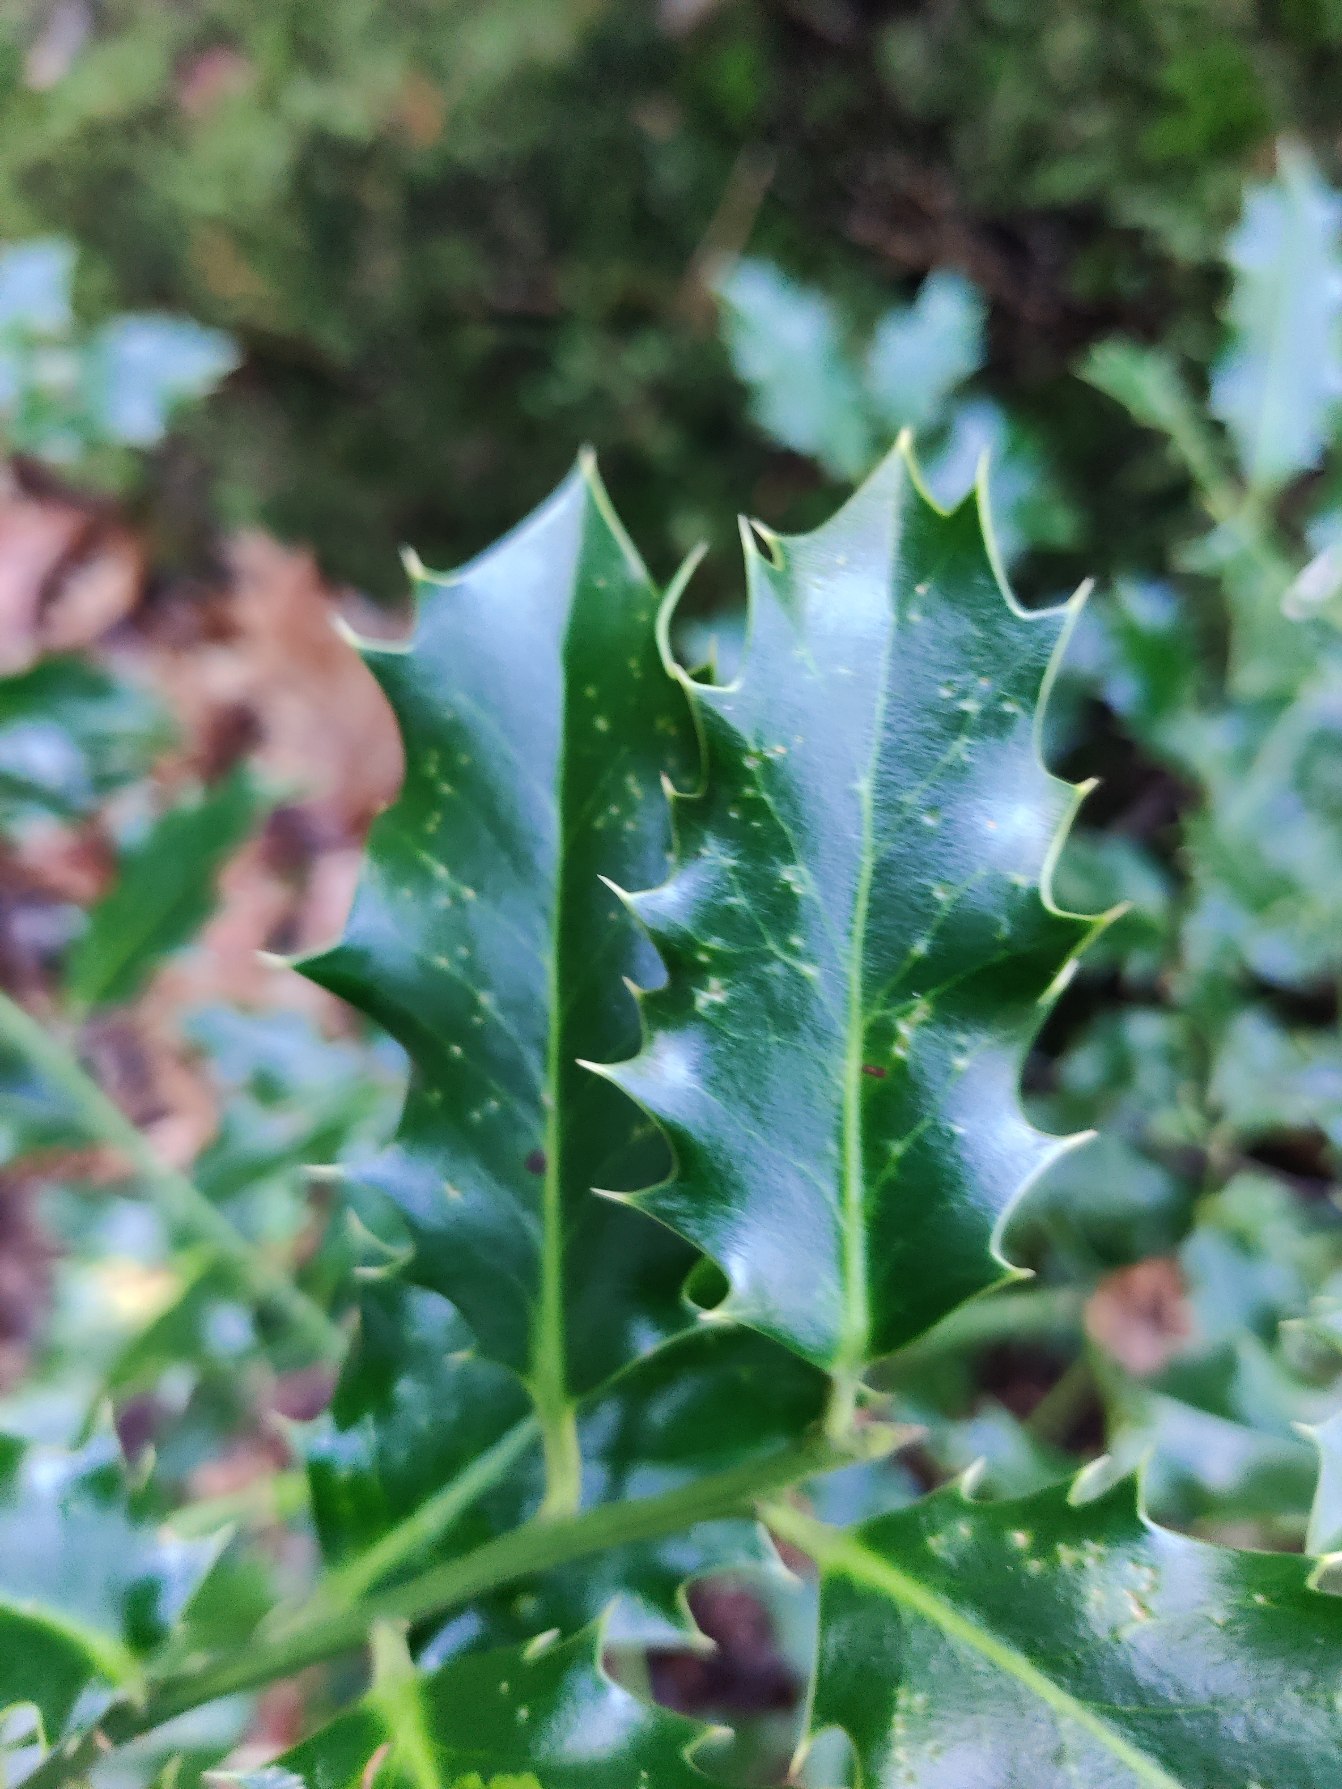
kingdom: Plantae
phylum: Tracheophyta
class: Magnoliopsida
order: Aquifoliales
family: Aquifoliaceae
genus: Ilex
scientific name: Ilex aquifolium
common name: Kristtorn
